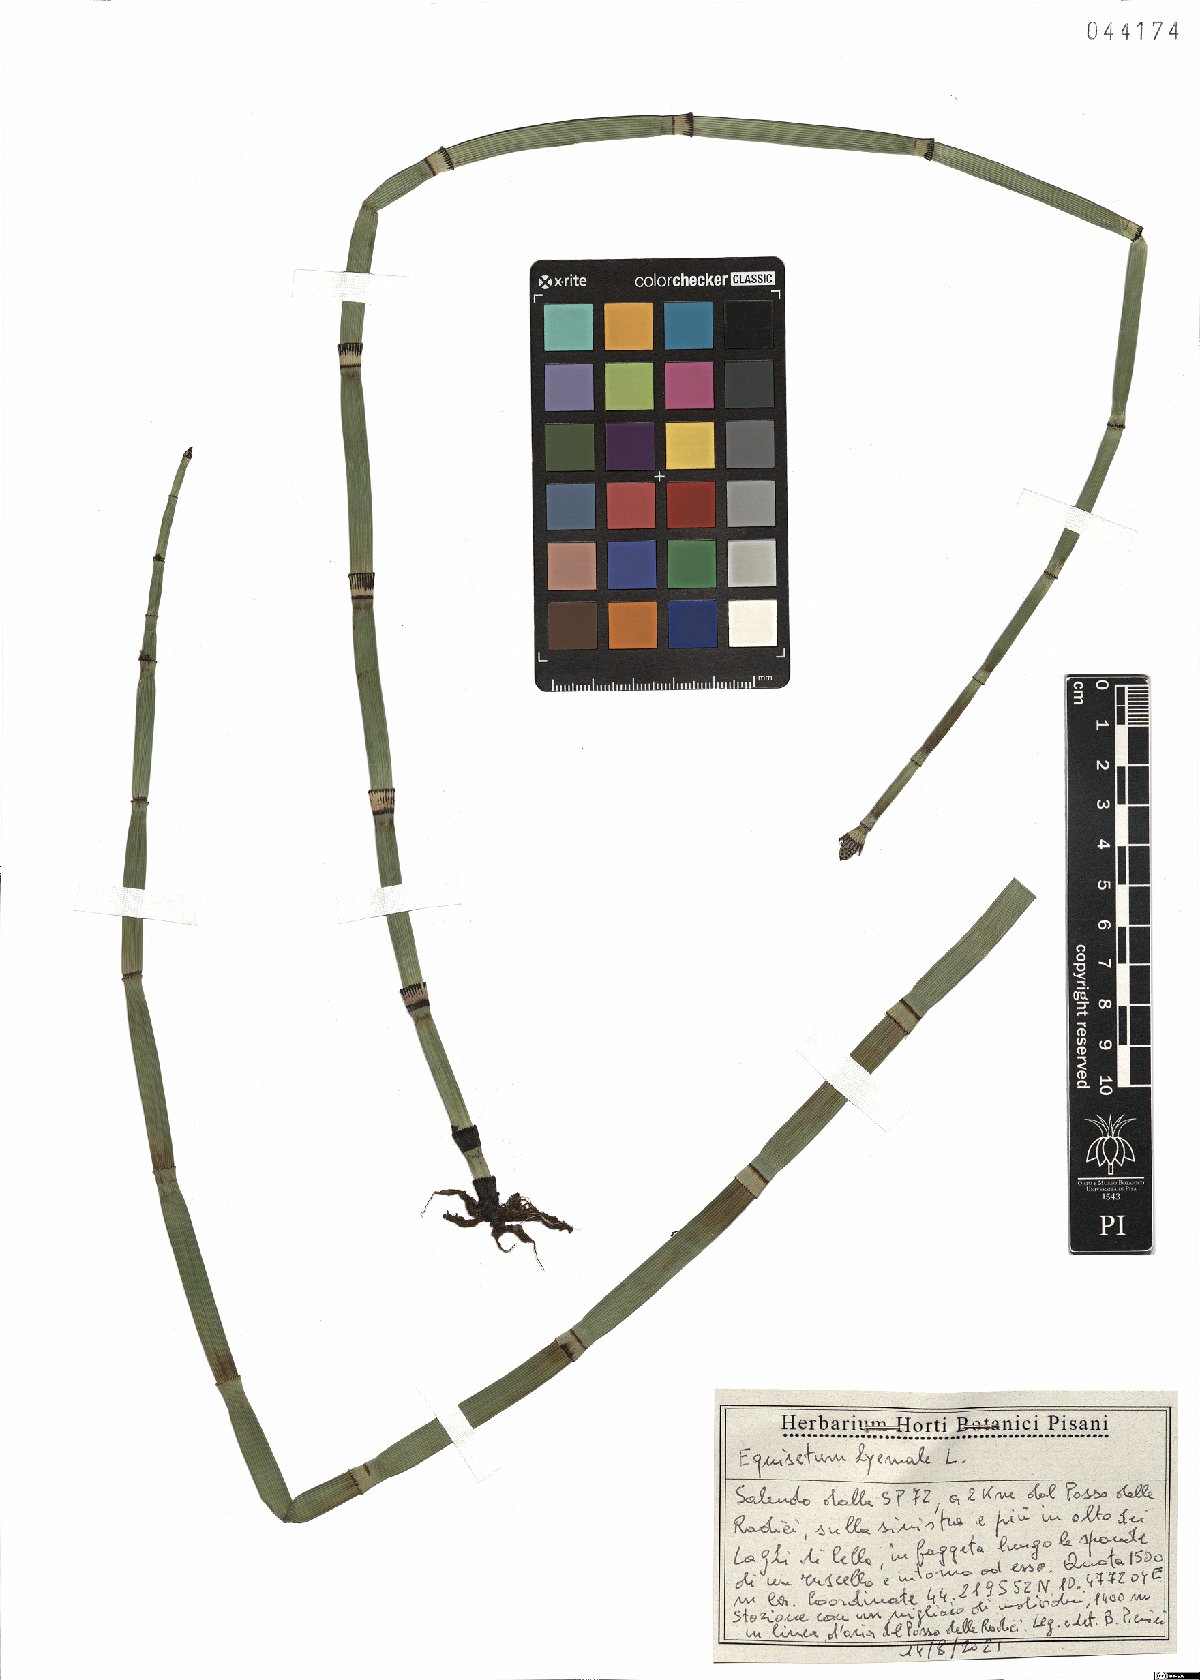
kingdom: Plantae
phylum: Tracheophyta
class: Polypodiopsida
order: Equisetales
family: Equisetaceae
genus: Equisetum
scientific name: Equisetum hyemale
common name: Rough horsetail
